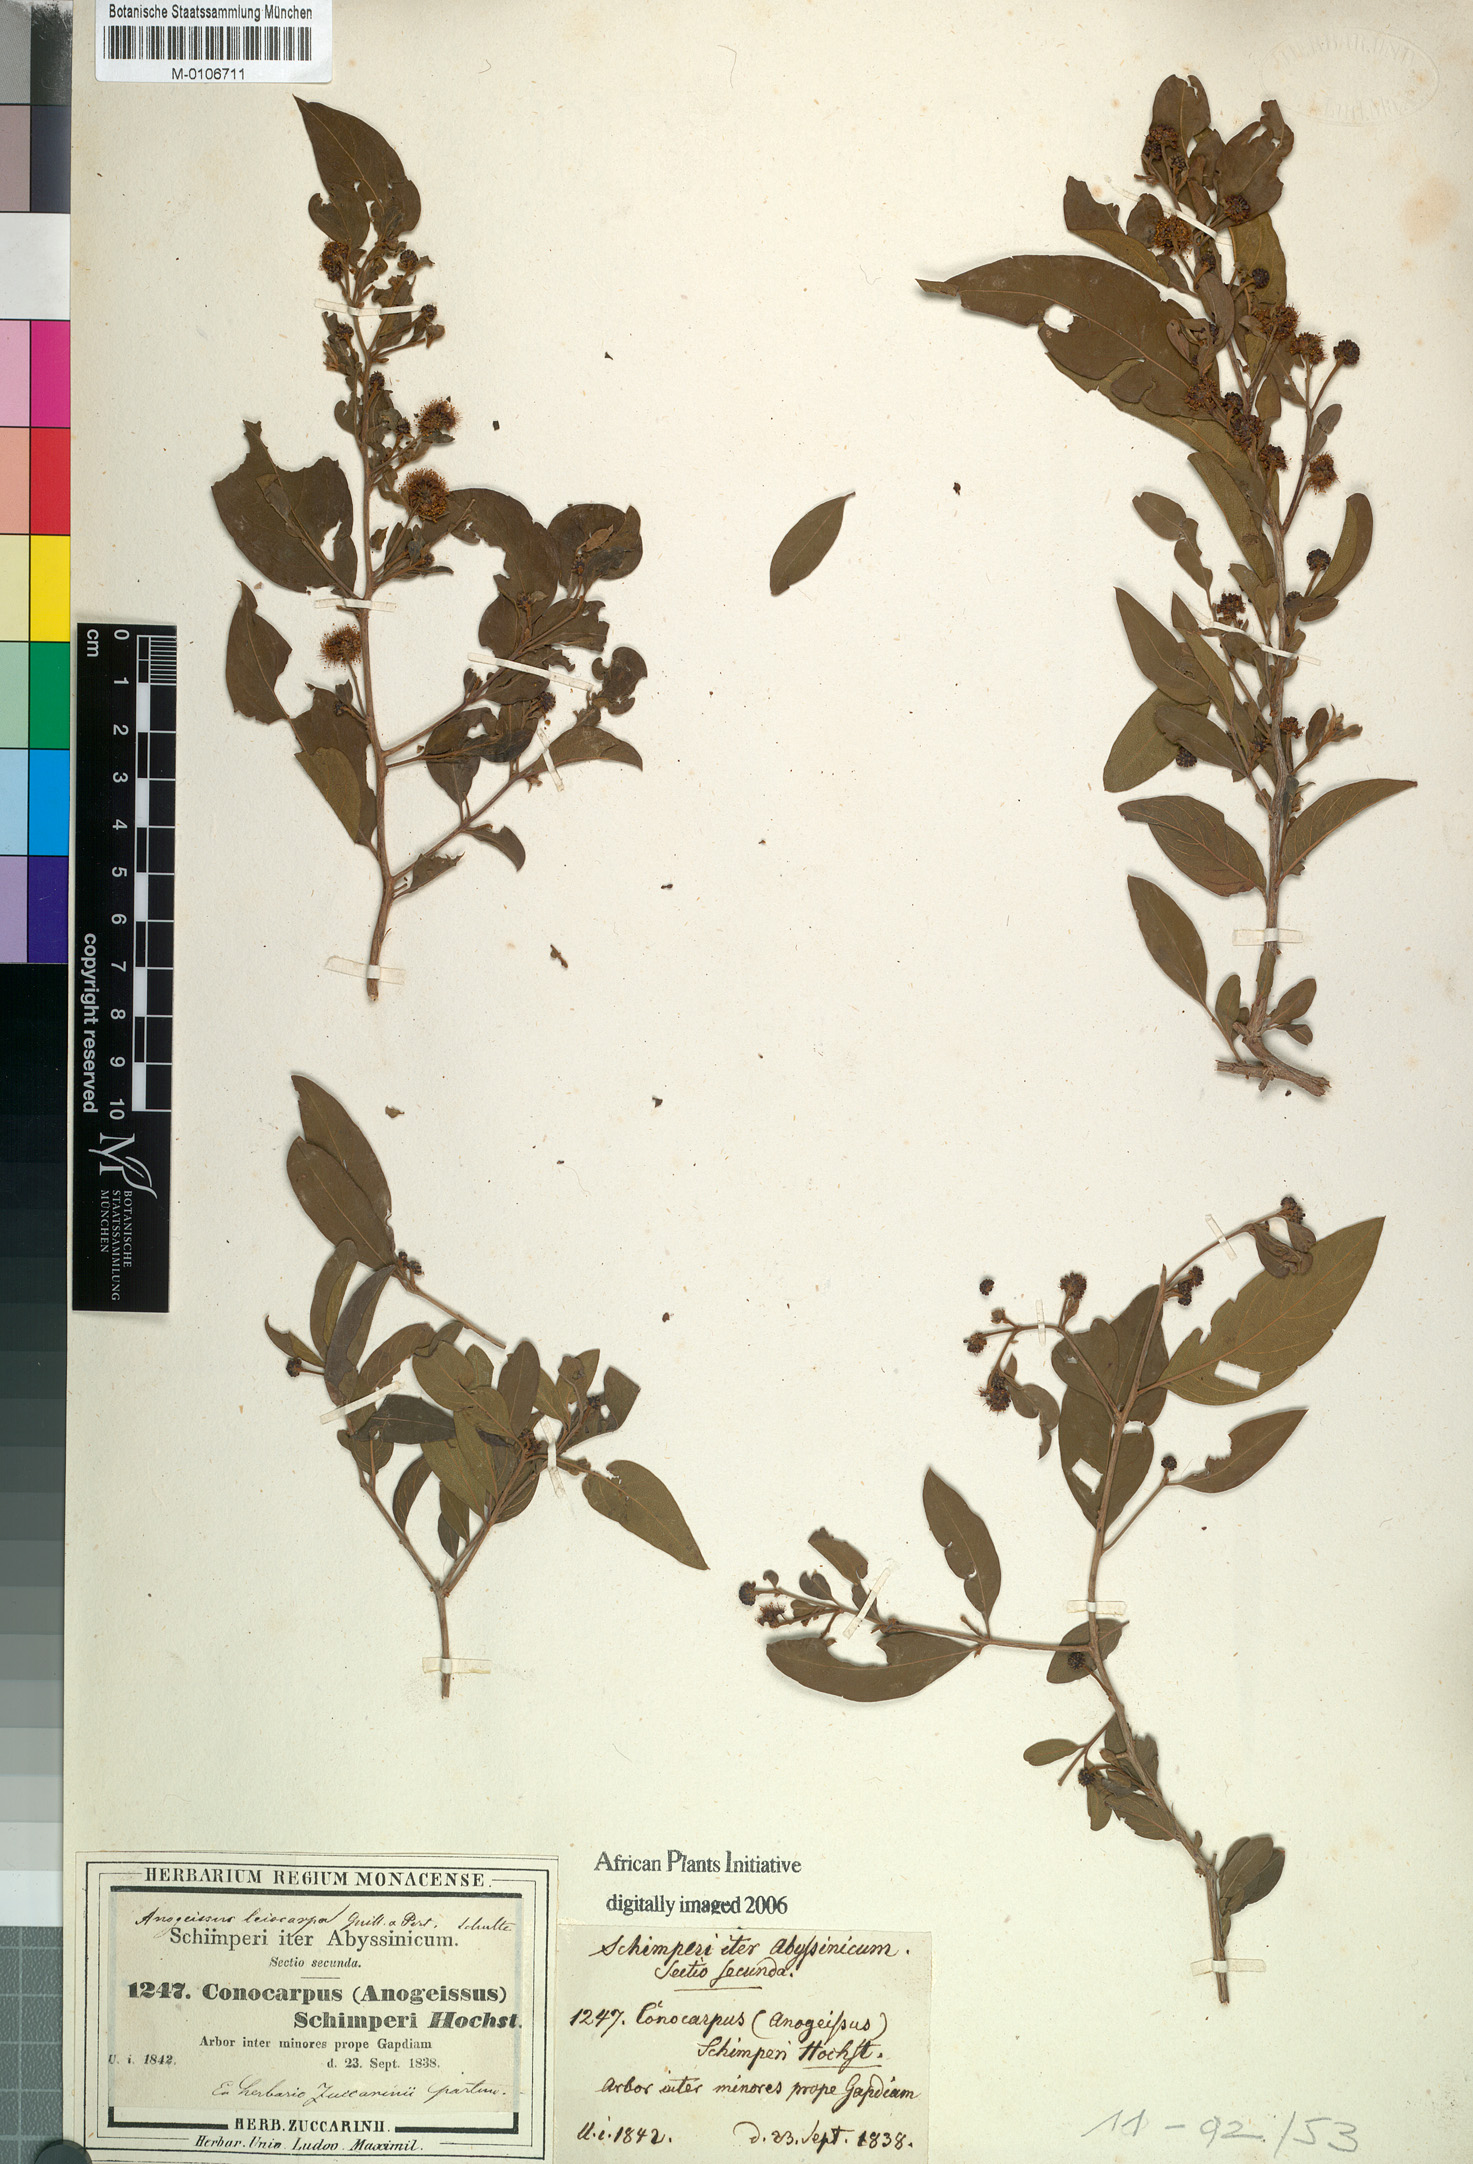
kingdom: Plantae
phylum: Tracheophyta
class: Magnoliopsida
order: Myrtales
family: Combretaceae
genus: Terminalia
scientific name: Terminalia leiocarpa
